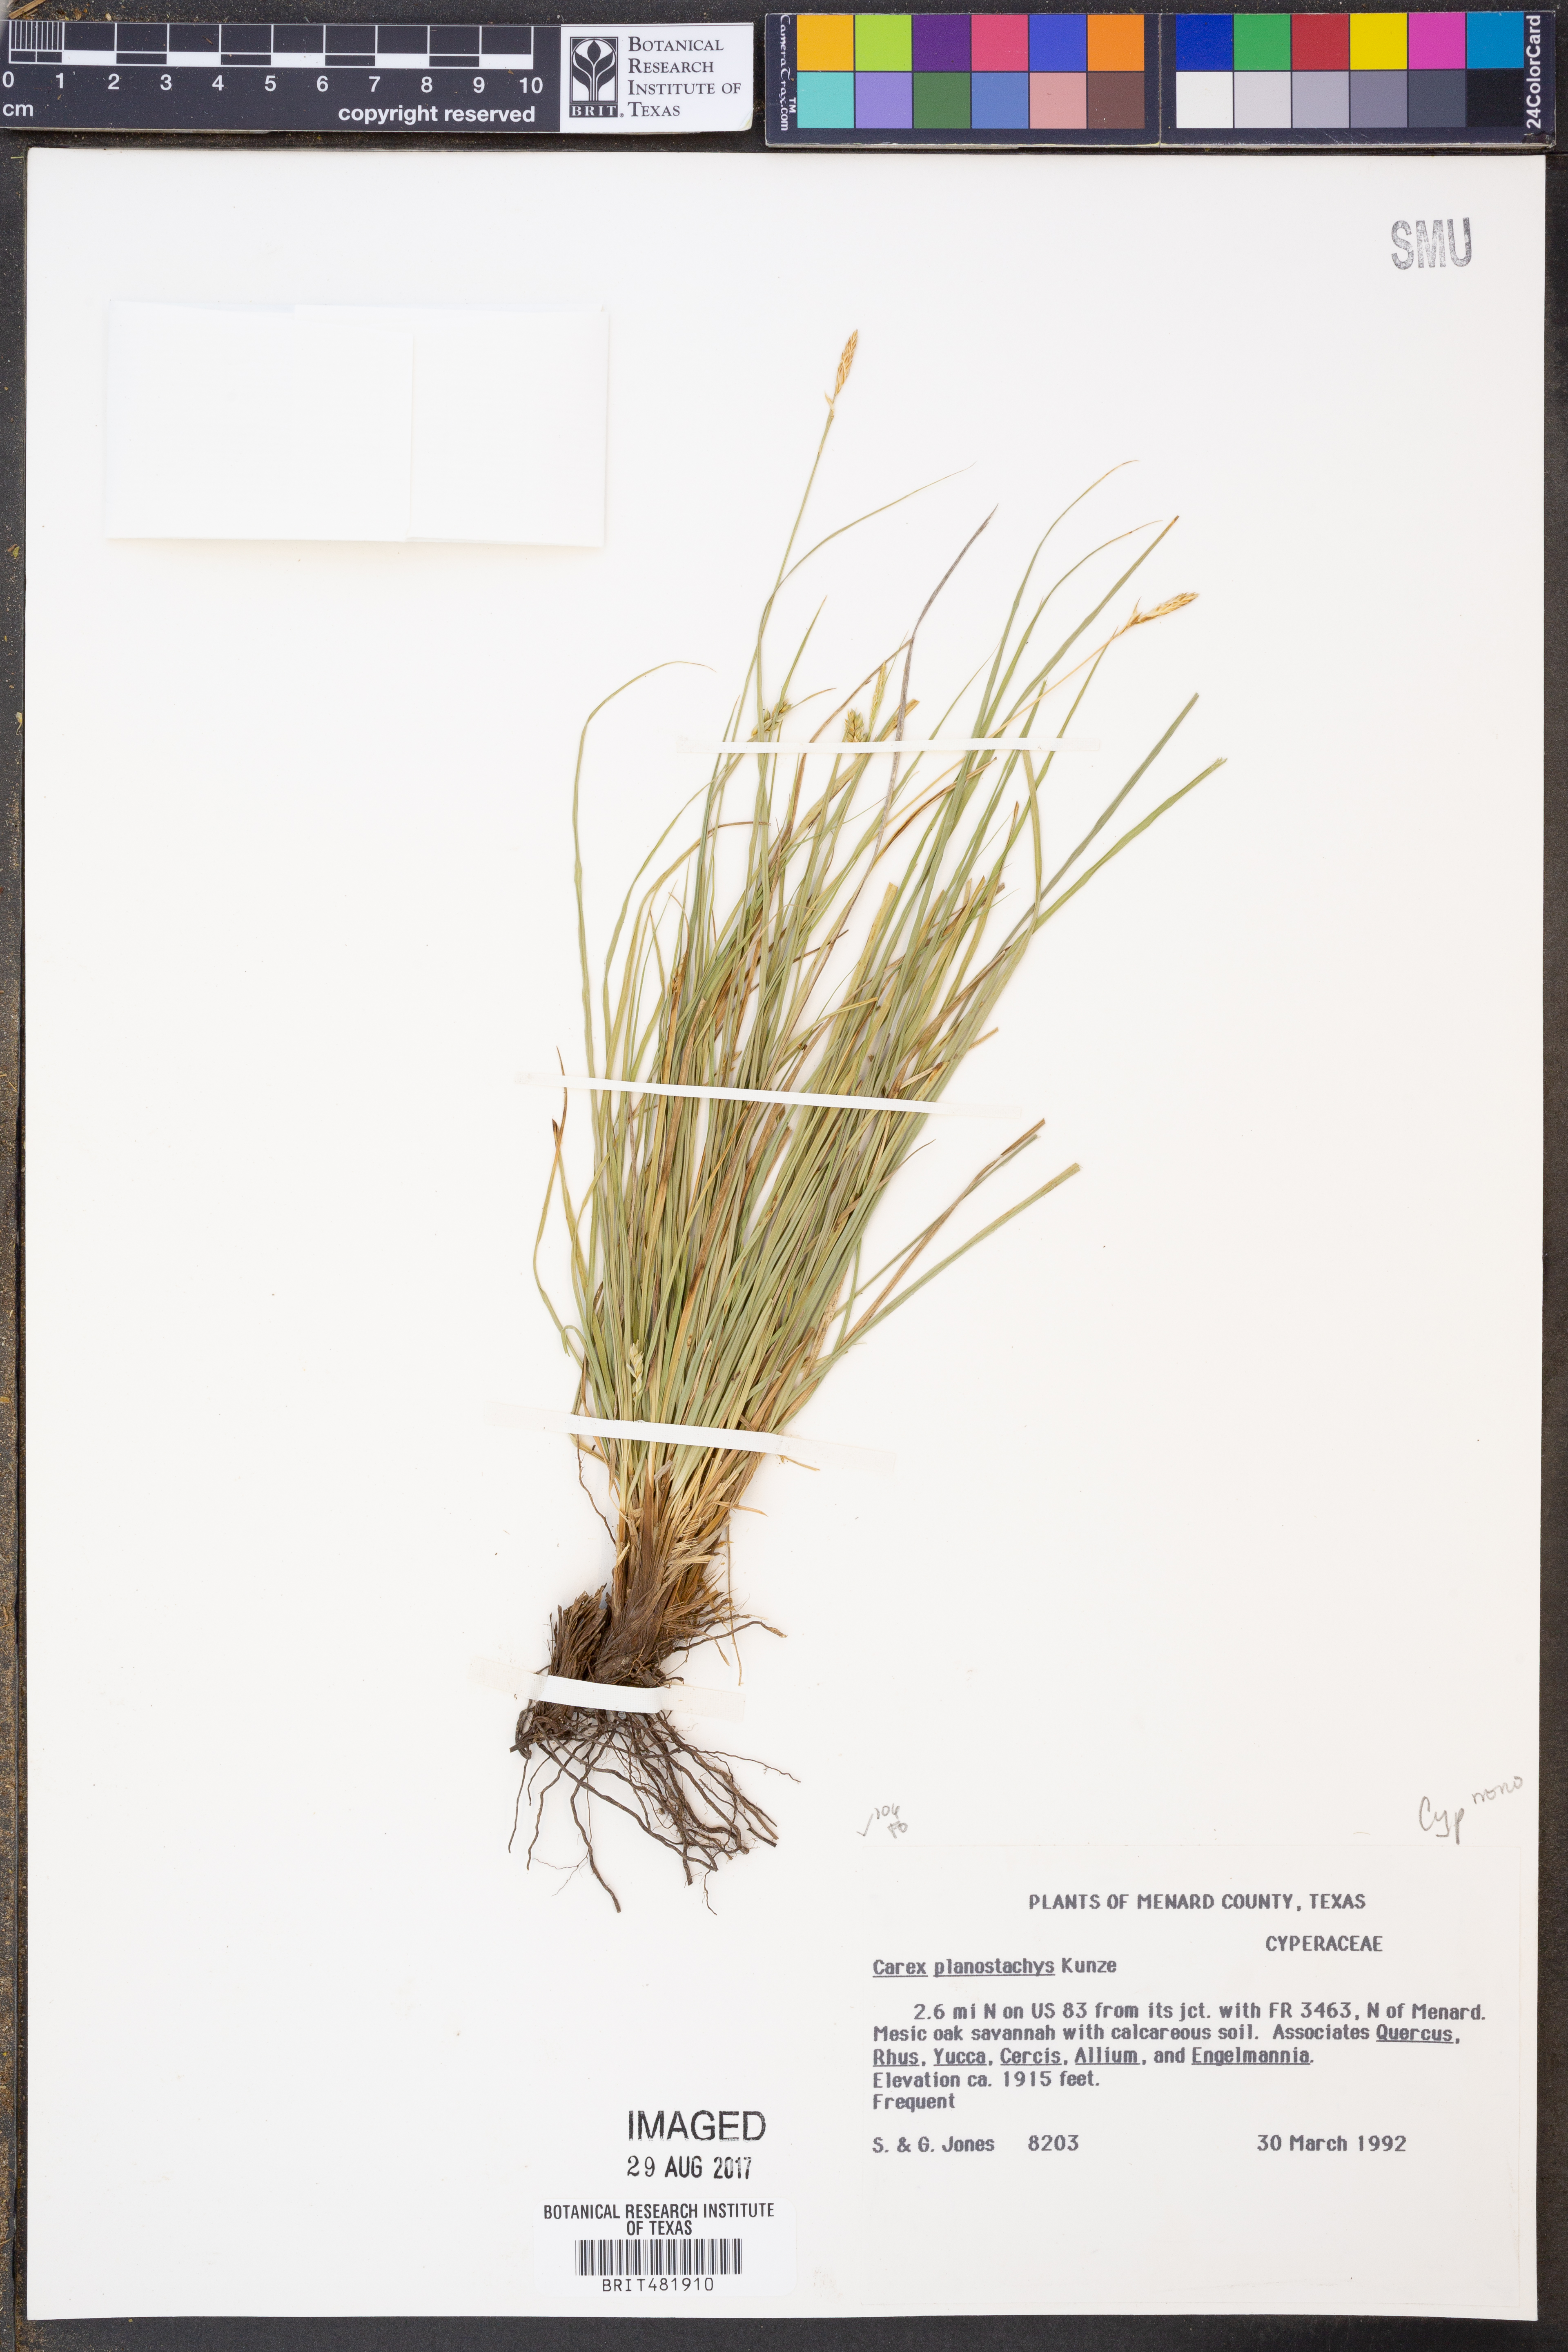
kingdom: Plantae
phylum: Tracheophyta
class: Liliopsida
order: Poales
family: Cyperaceae
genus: Carex
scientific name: Carex planostachys
